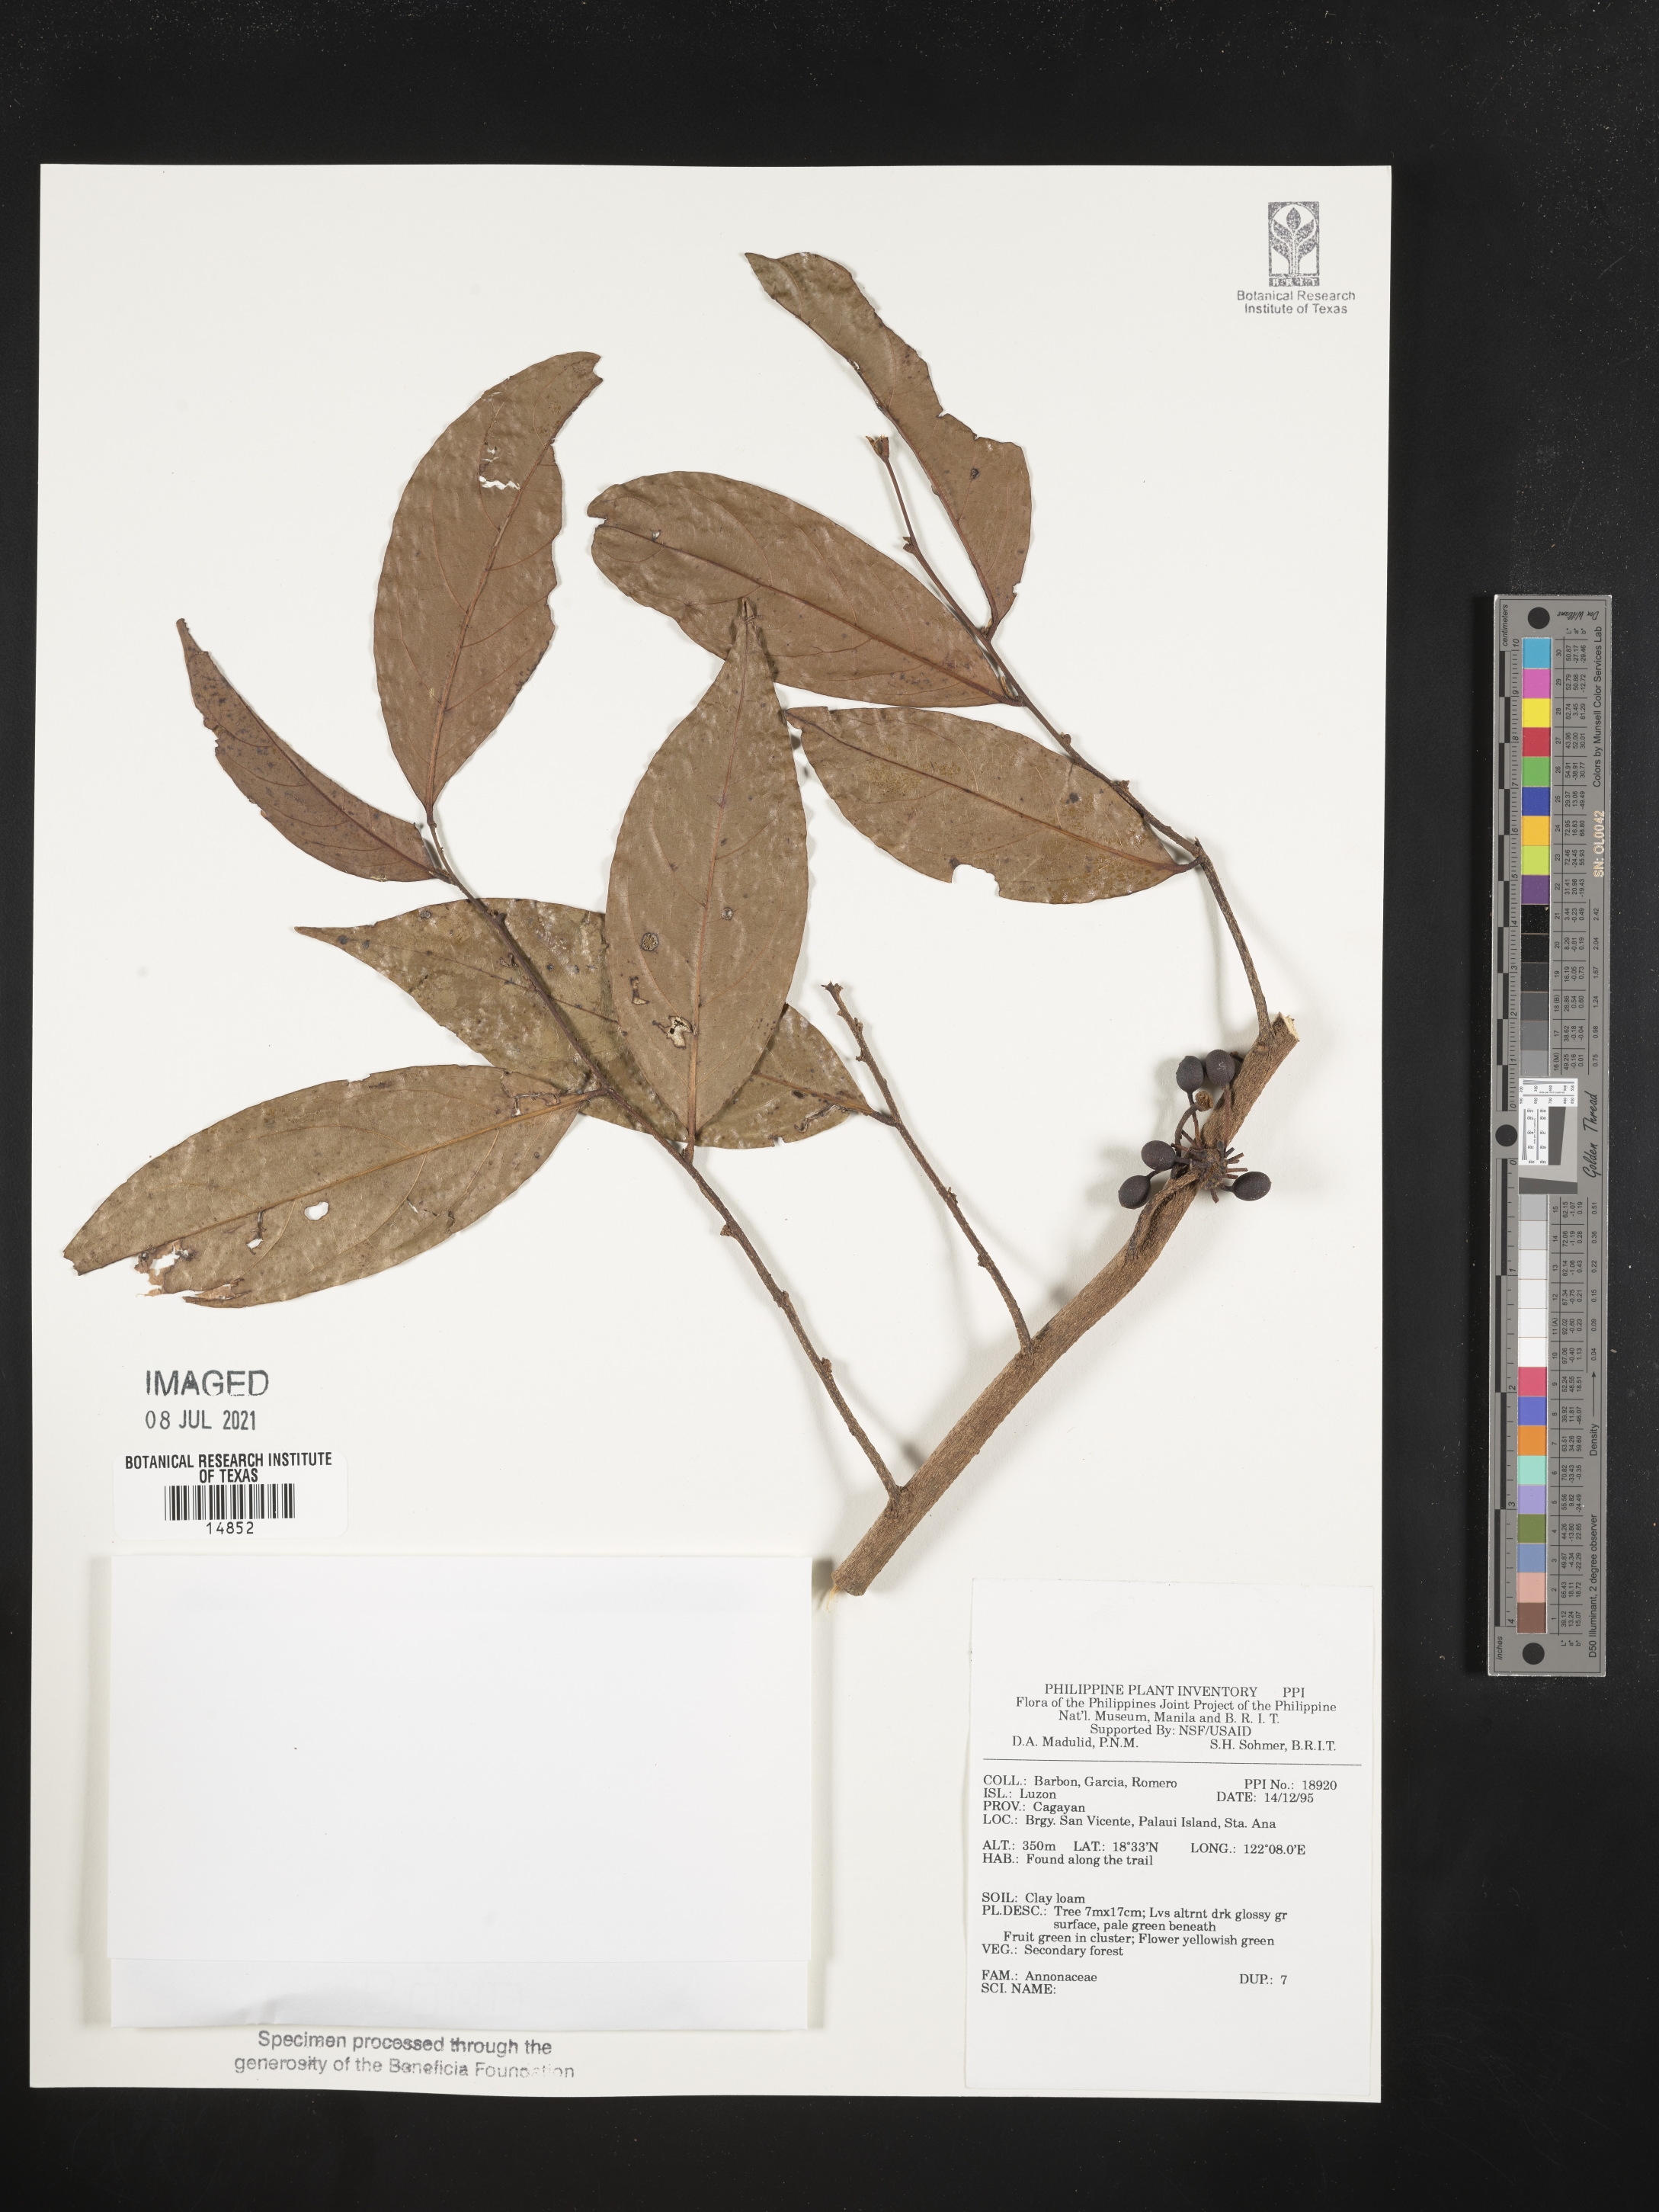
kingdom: Plantae
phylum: Tracheophyta
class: Magnoliopsida
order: Magnoliales
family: Annonaceae
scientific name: Annonaceae
